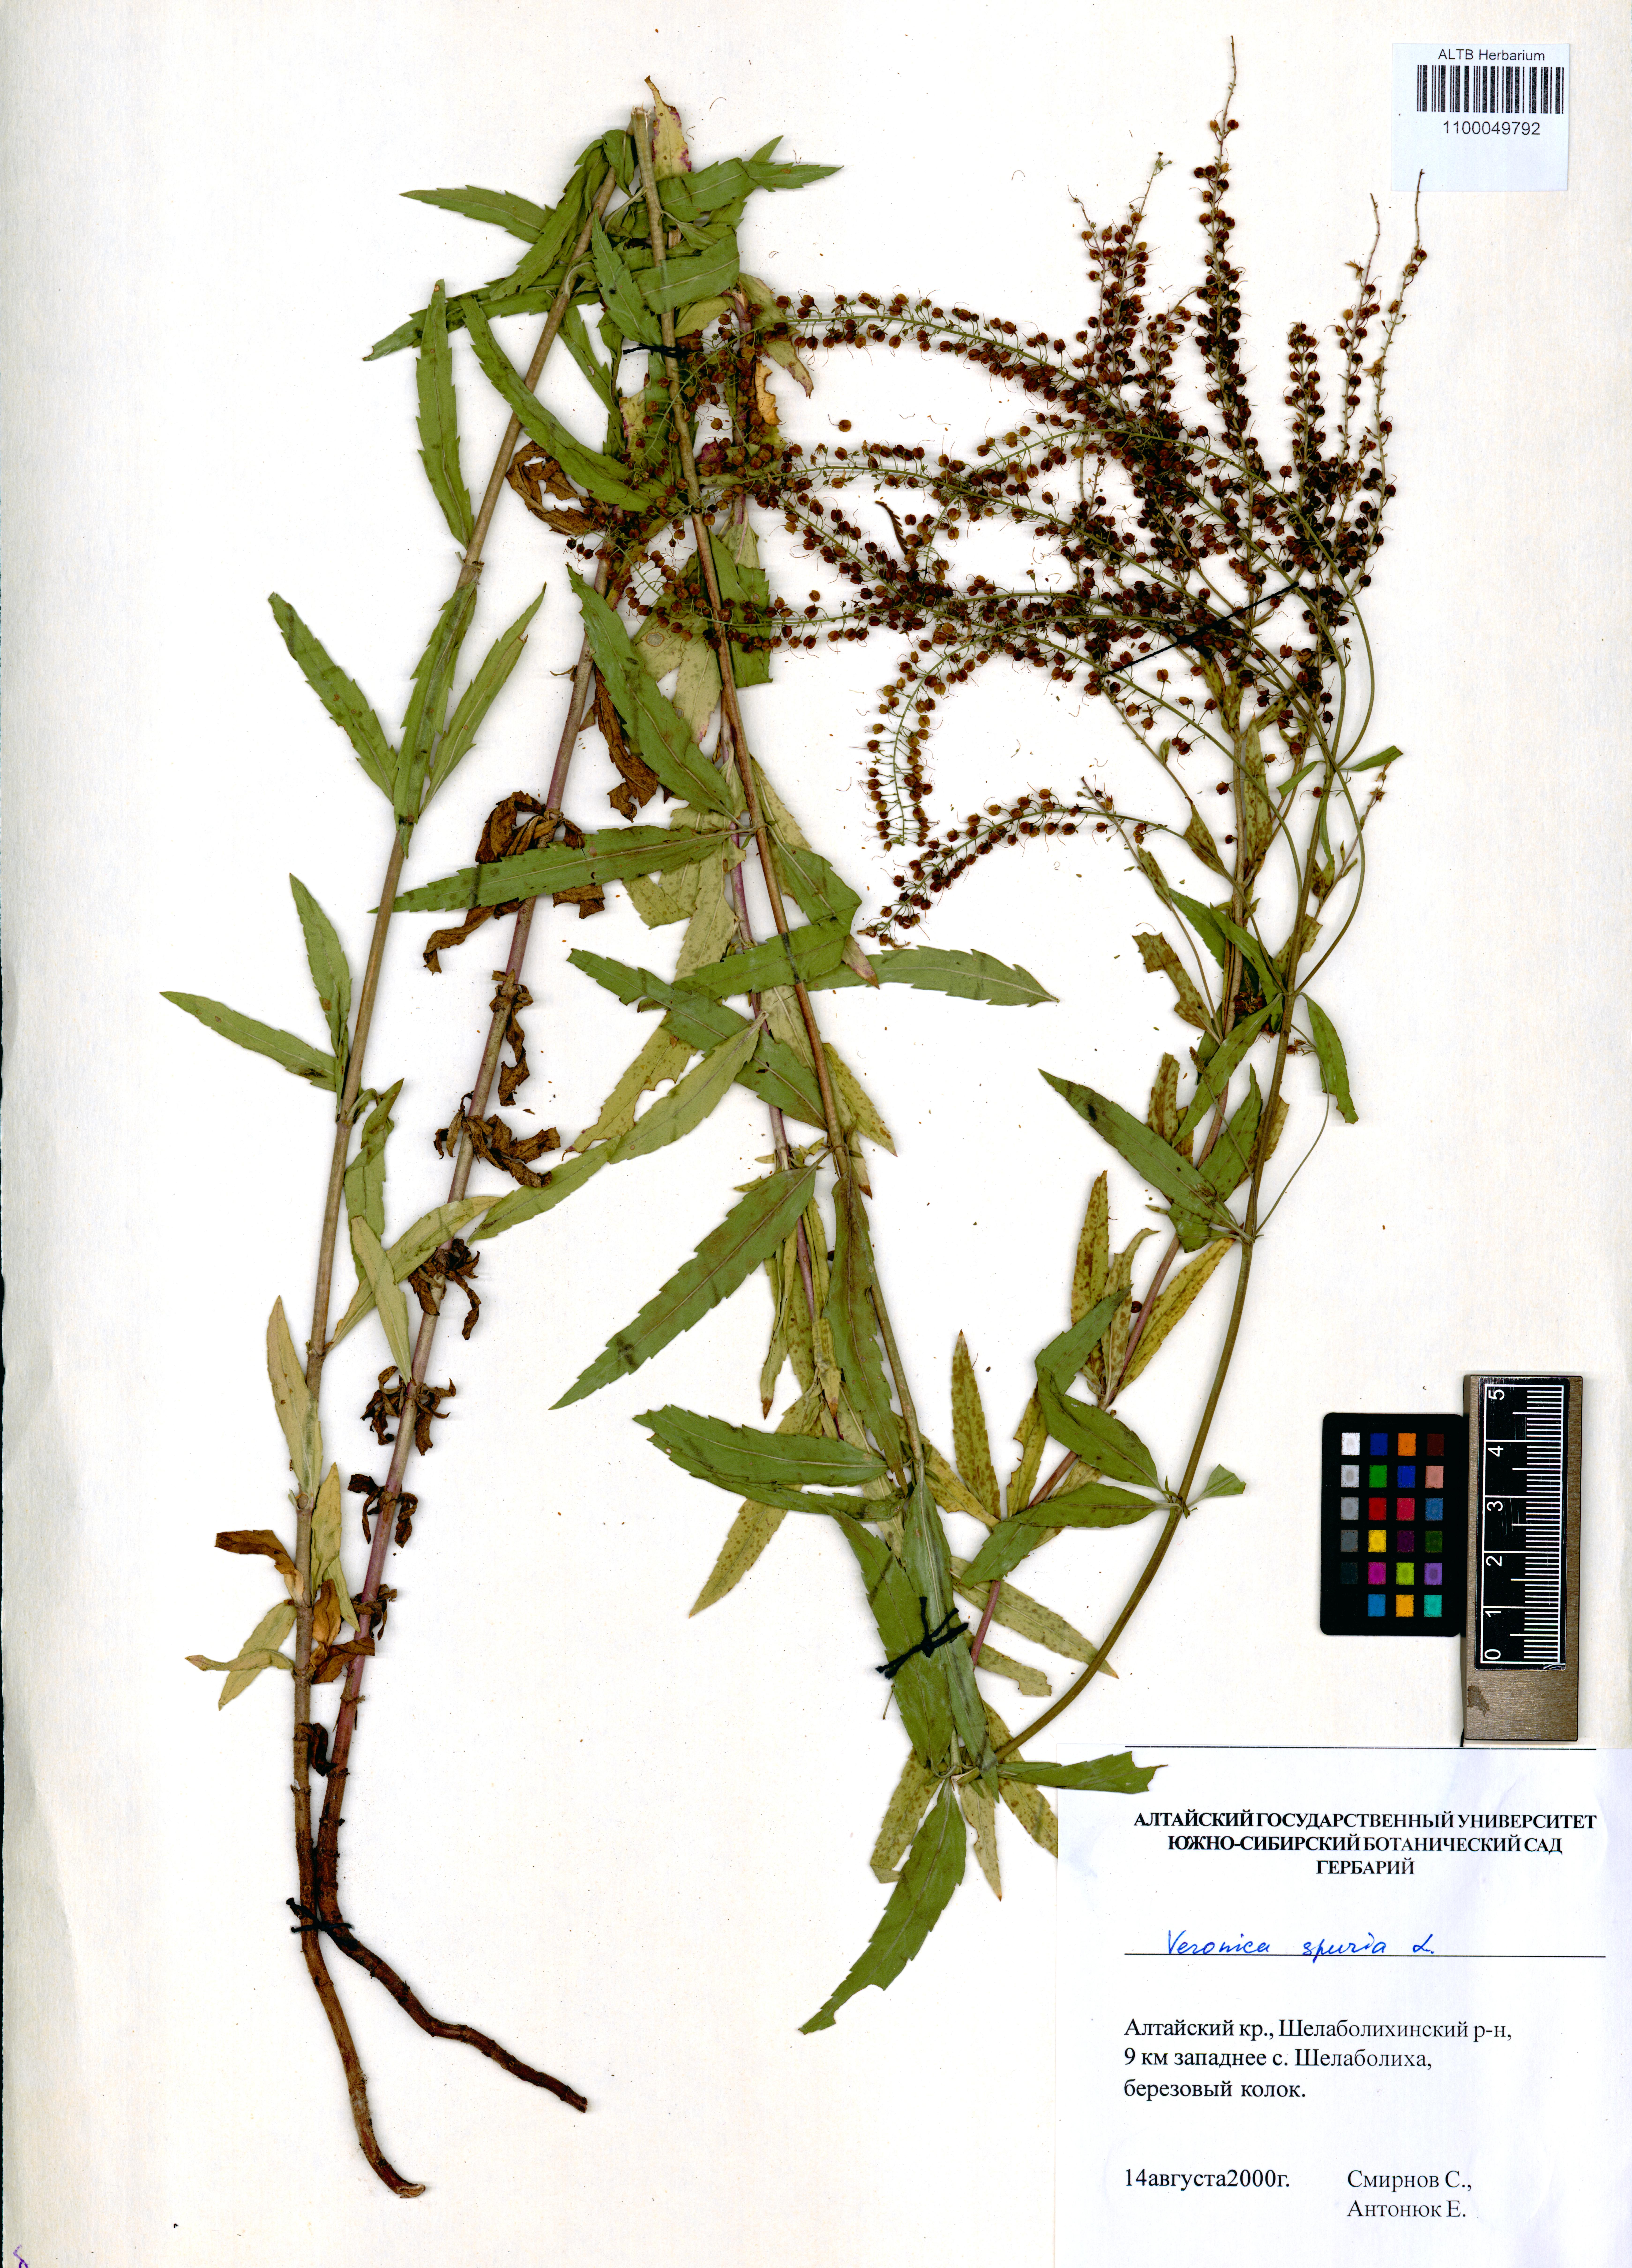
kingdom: Plantae
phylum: Tracheophyta
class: Magnoliopsida
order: Lamiales
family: Plantaginaceae
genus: Veronica
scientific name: Veronica spuria
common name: Bastard speedwell
